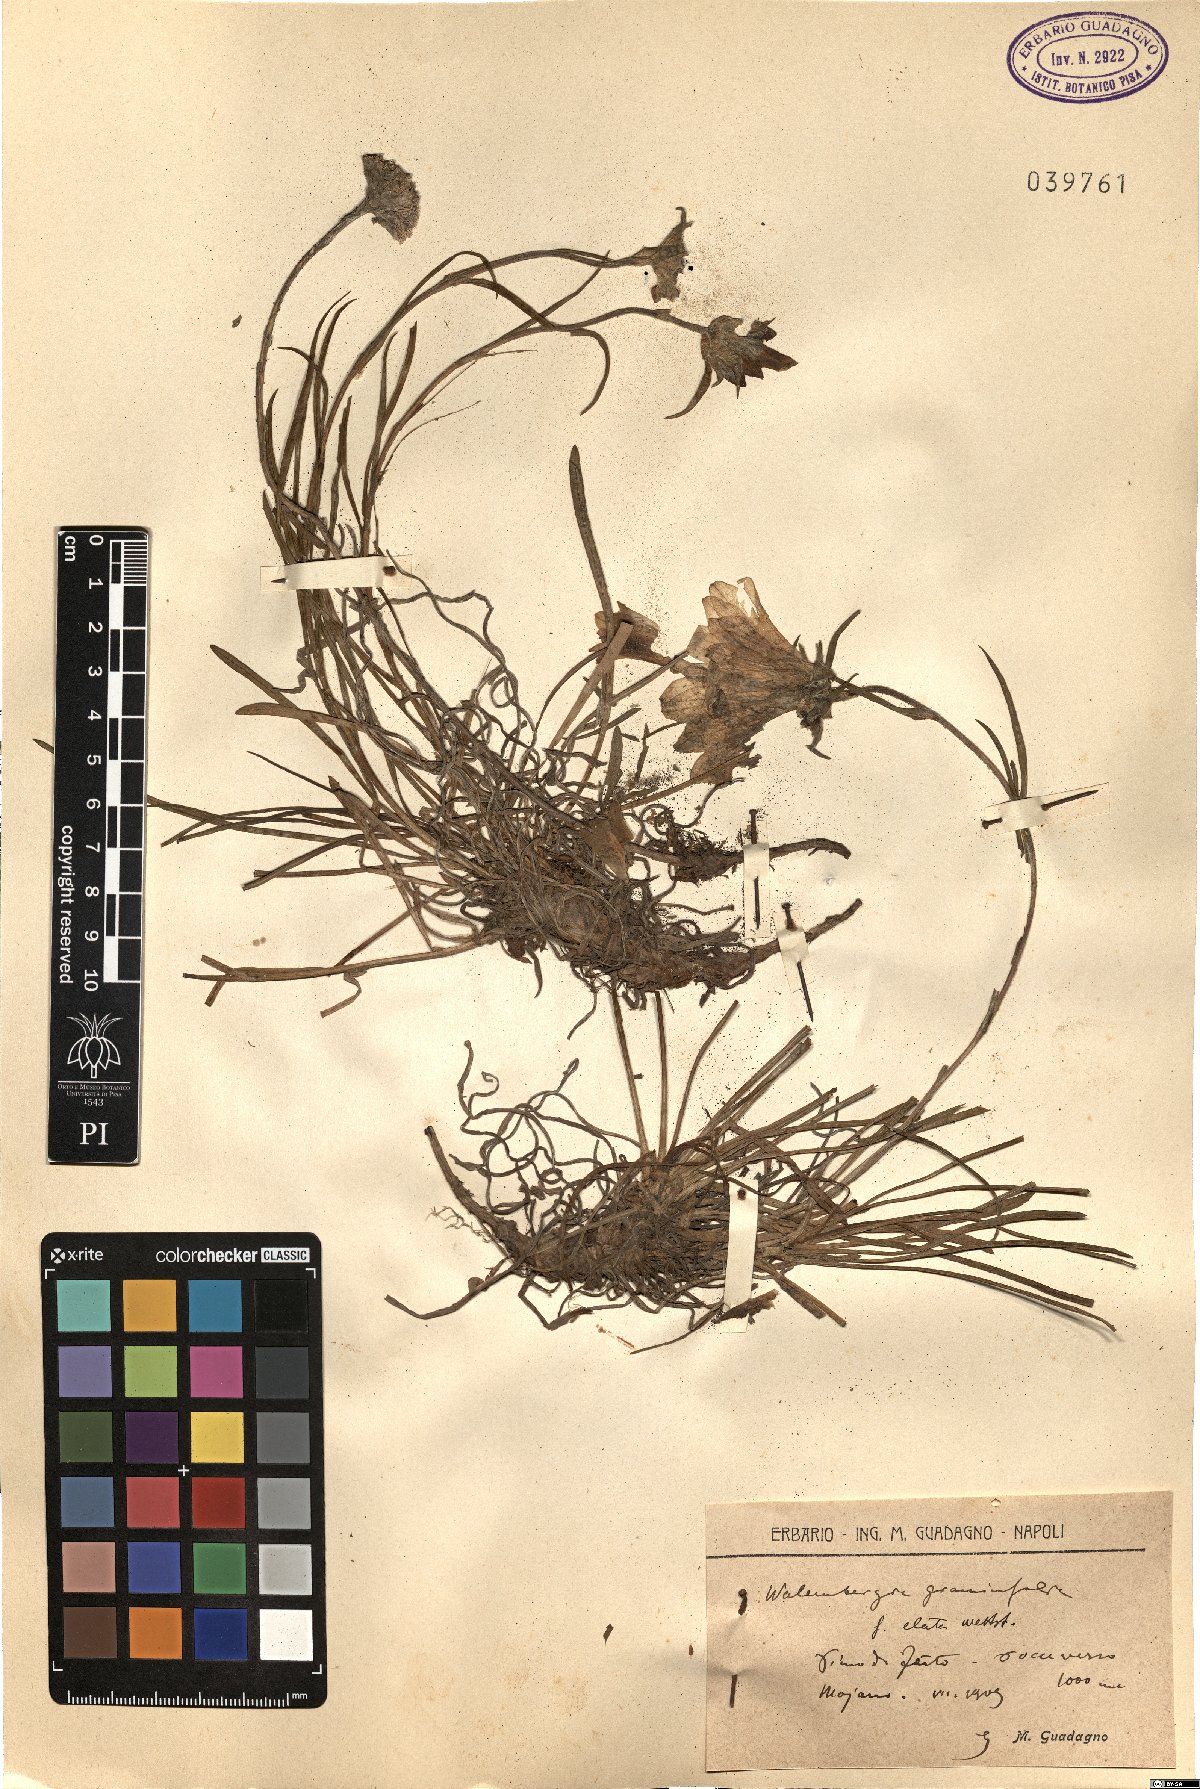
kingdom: Plantae
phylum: Tracheophyta
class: Magnoliopsida
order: Asterales
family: Campanulaceae
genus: Edraianthus
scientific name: Edraianthus graminifolius
